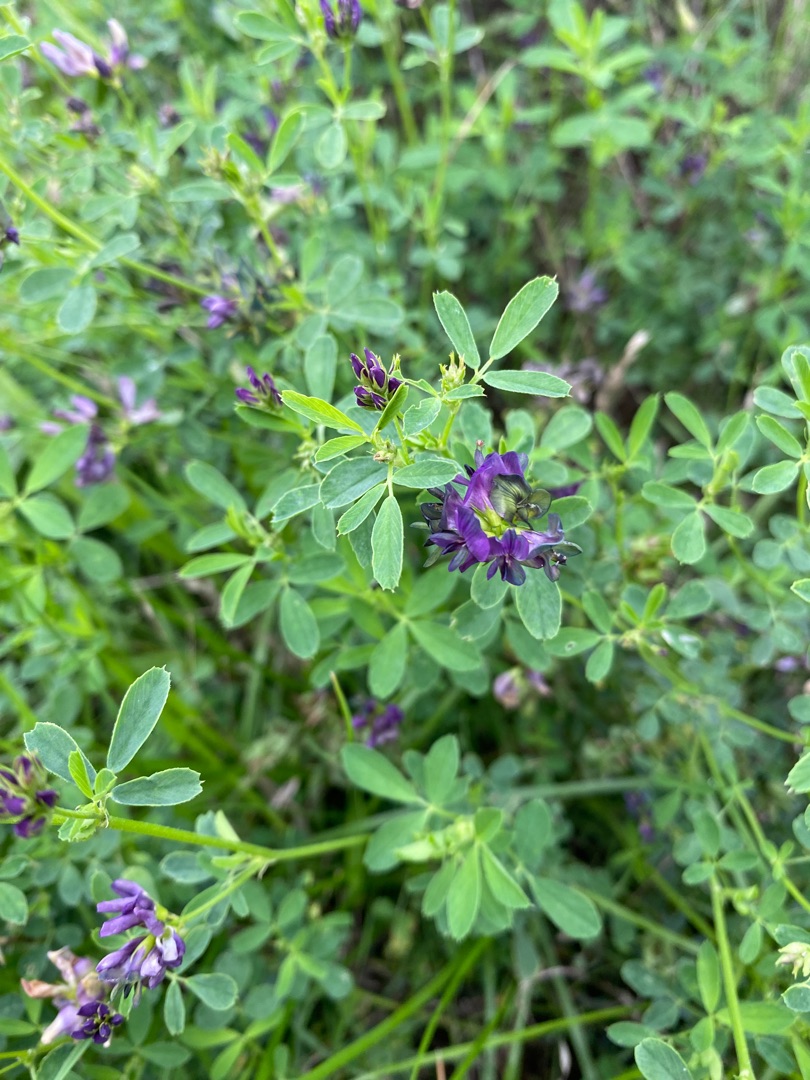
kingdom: Plantae
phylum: Tracheophyta
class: Magnoliopsida
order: Fabales
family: Fabaceae
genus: Medicago
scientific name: Medicago varia
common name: Sand-lucerne
